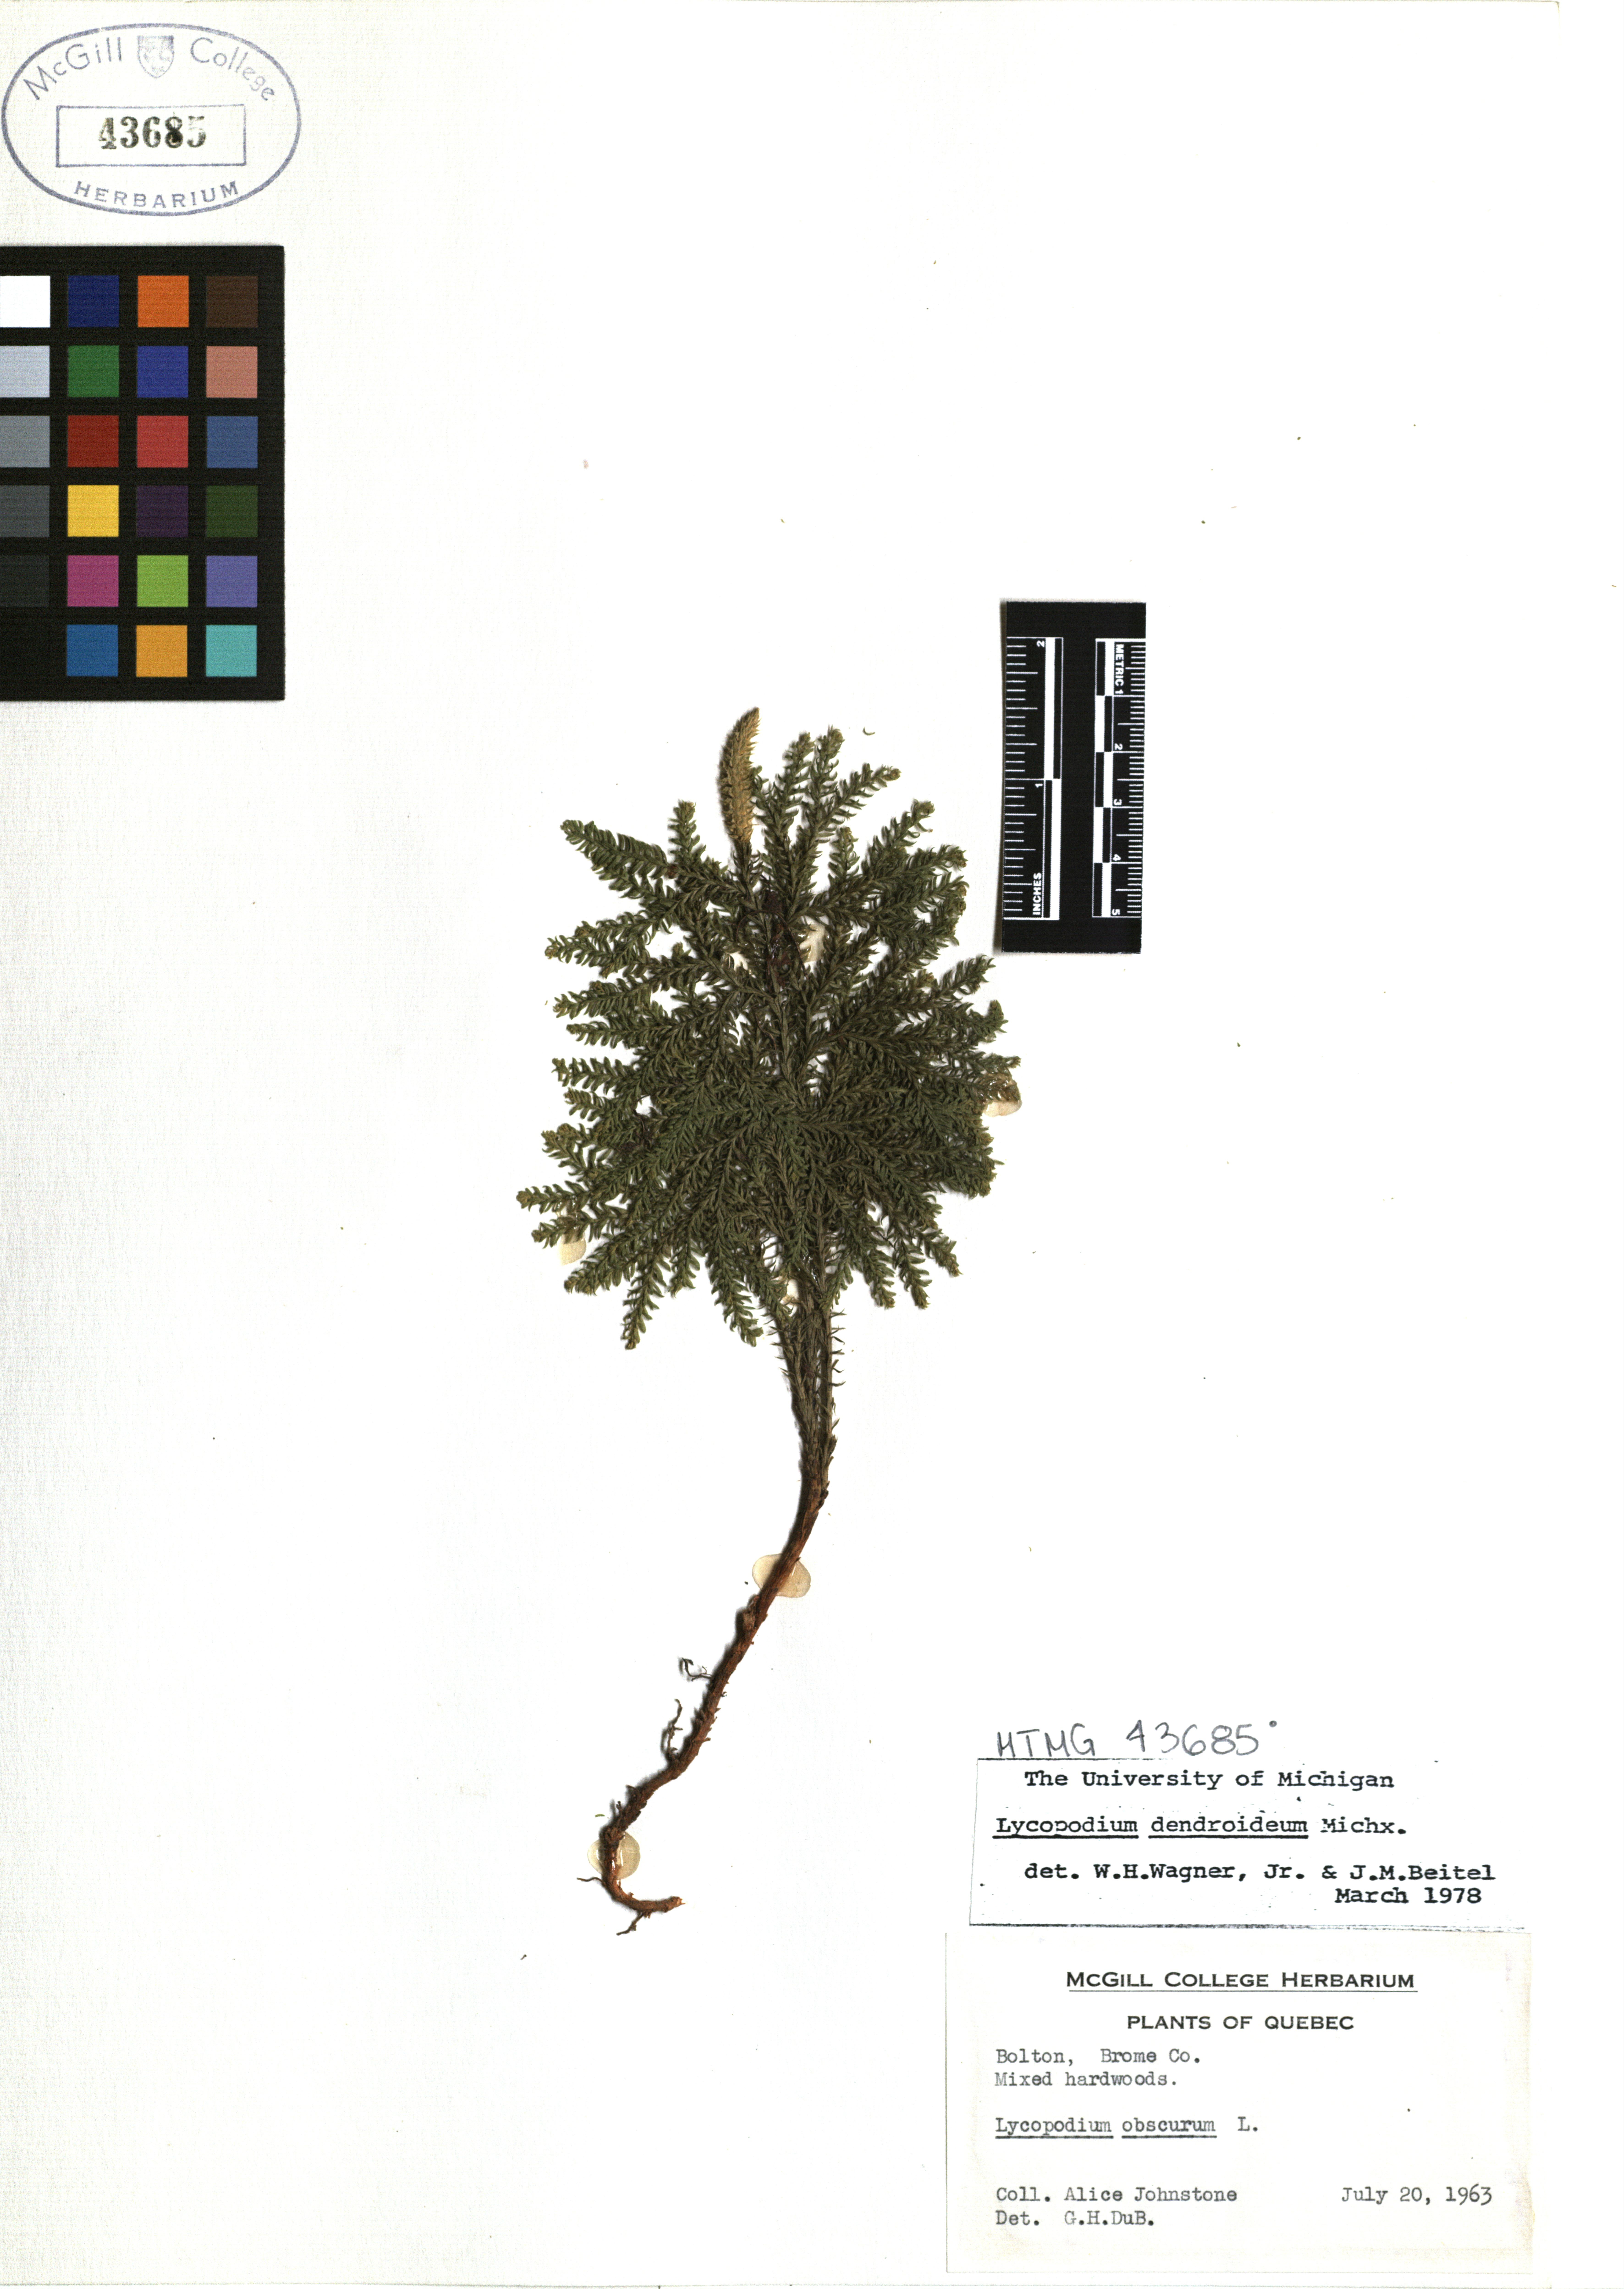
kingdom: Plantae
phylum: Tracheophyta
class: Lycopodiopsida
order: Lycopodiales
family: Lycopodiaceae
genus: Dendrolycopodium
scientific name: Dendrolycopodium dendroideum
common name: Northern tree-clubmoss
